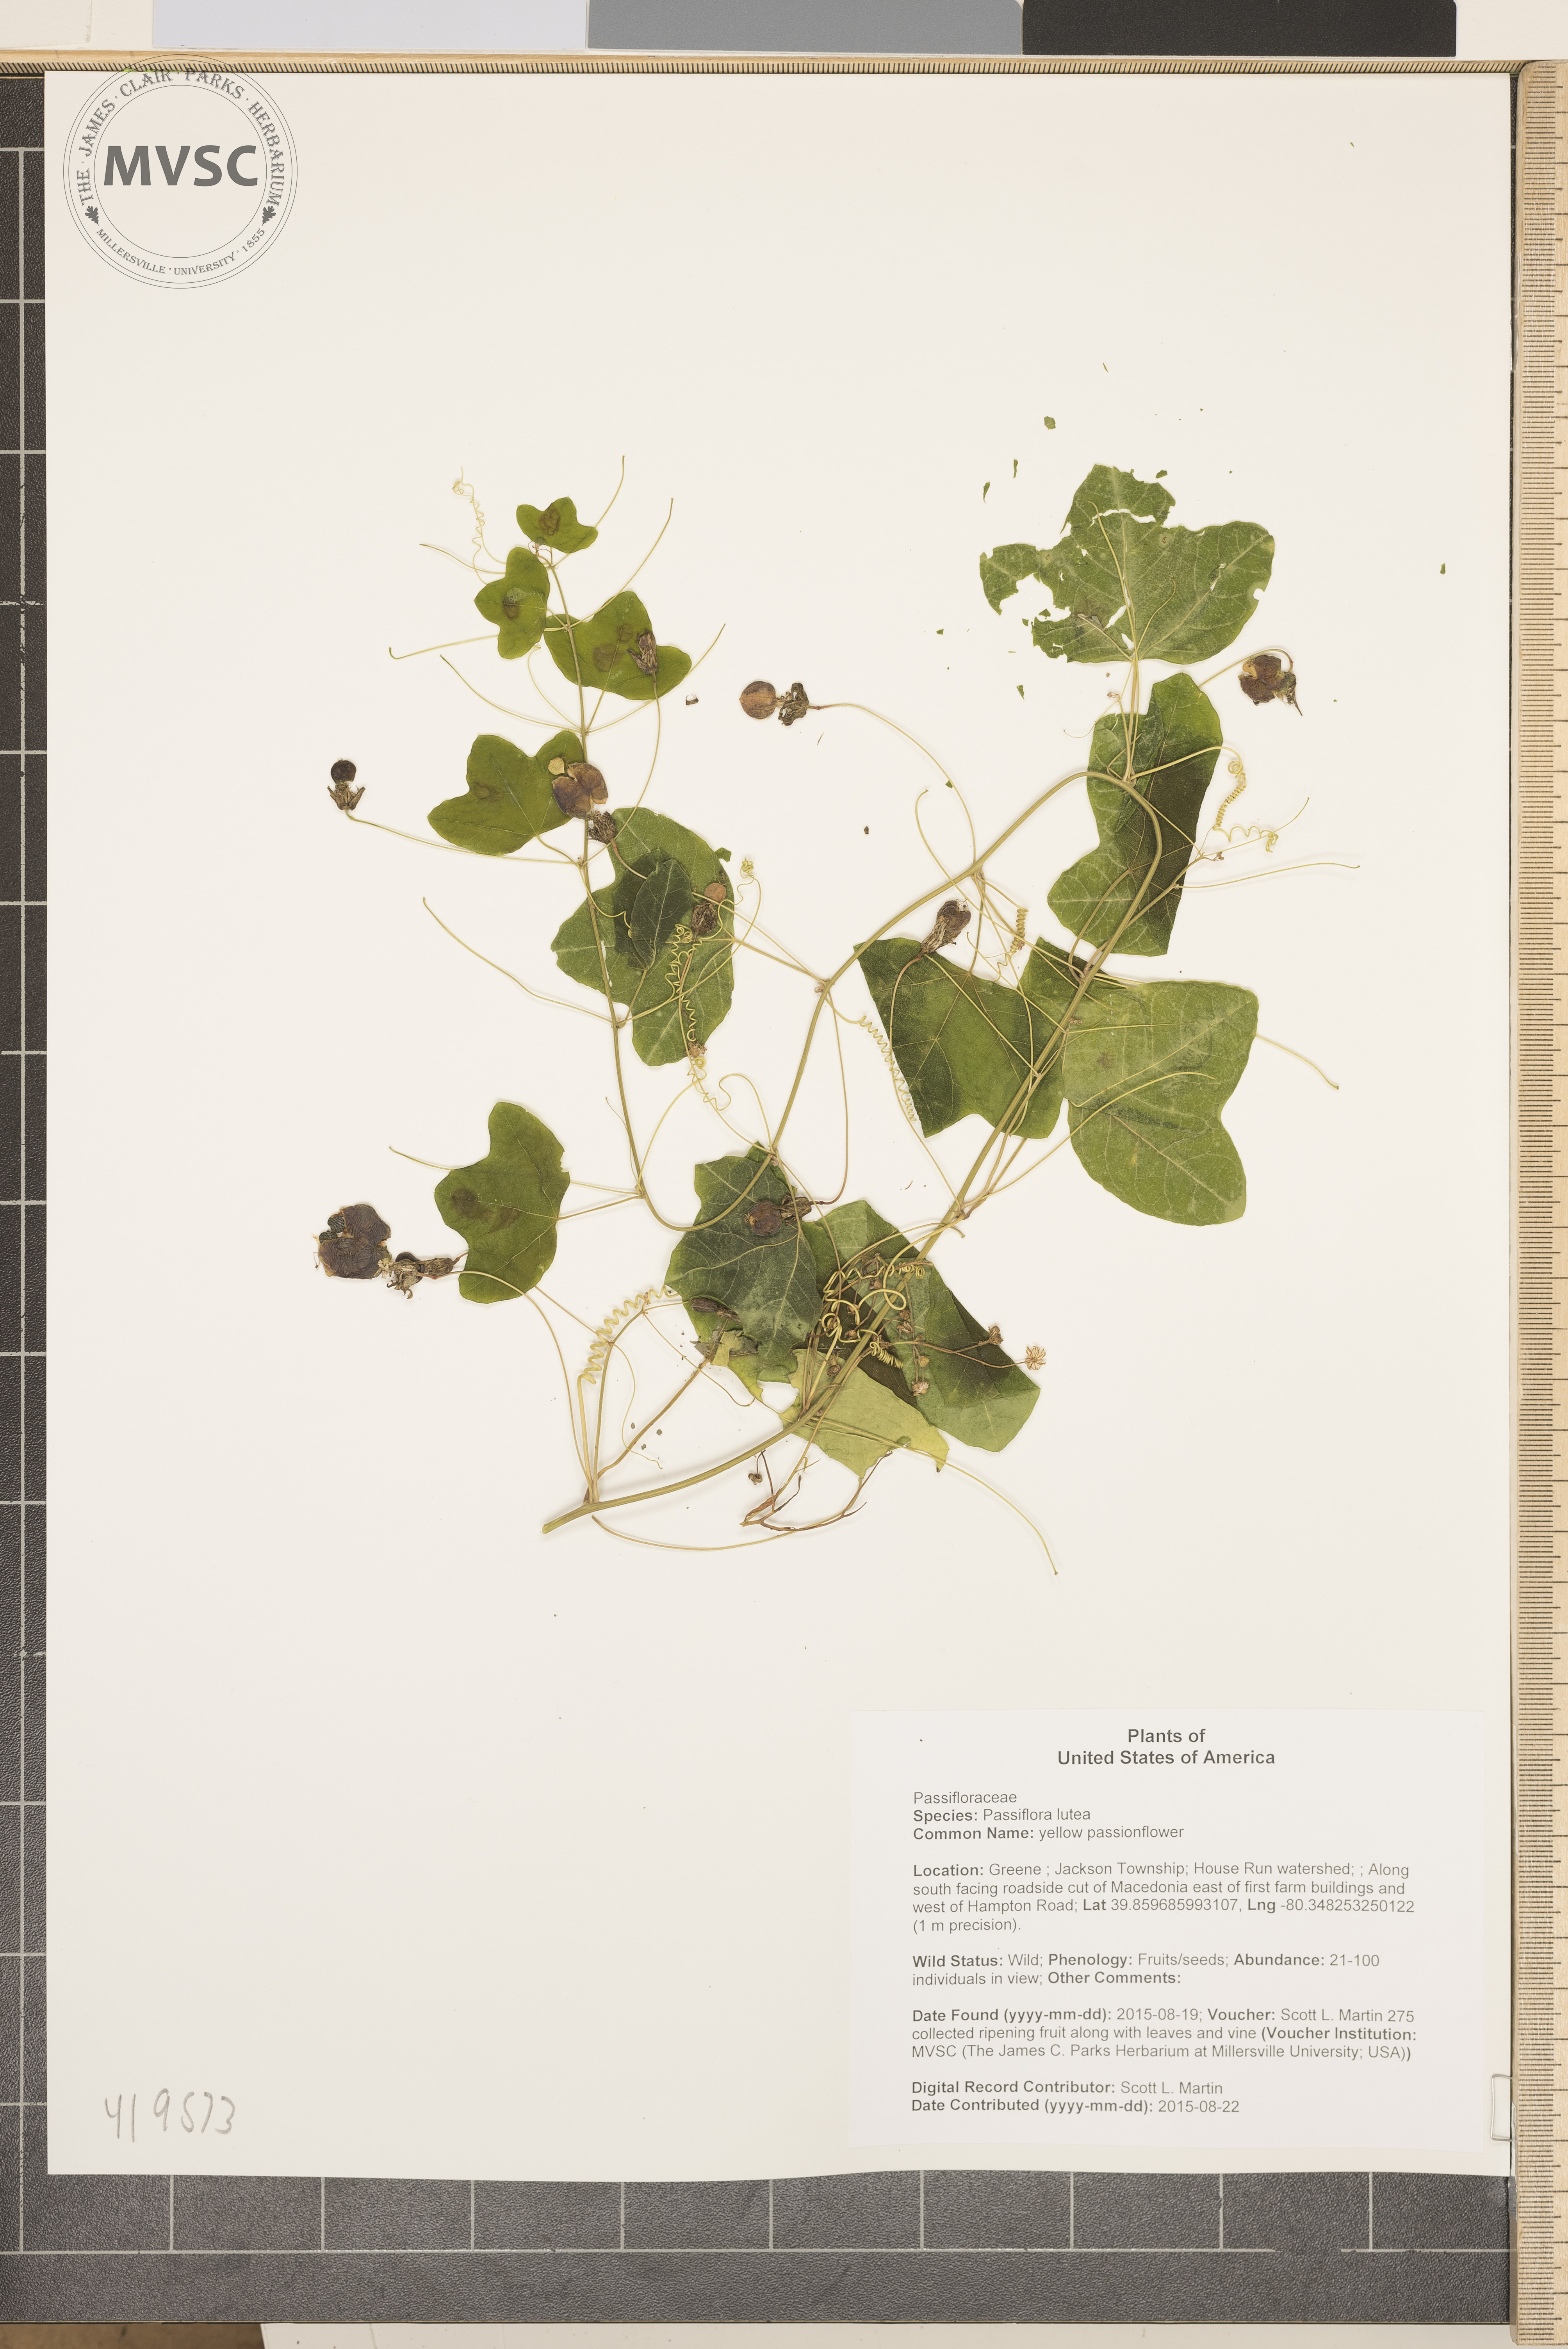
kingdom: Plantae
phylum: Tracheophyta
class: Magnoliopsida
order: Malpighiales
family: Passifloraceae
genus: Passiflora
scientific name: Passiflora lutea
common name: yellow passionflower
